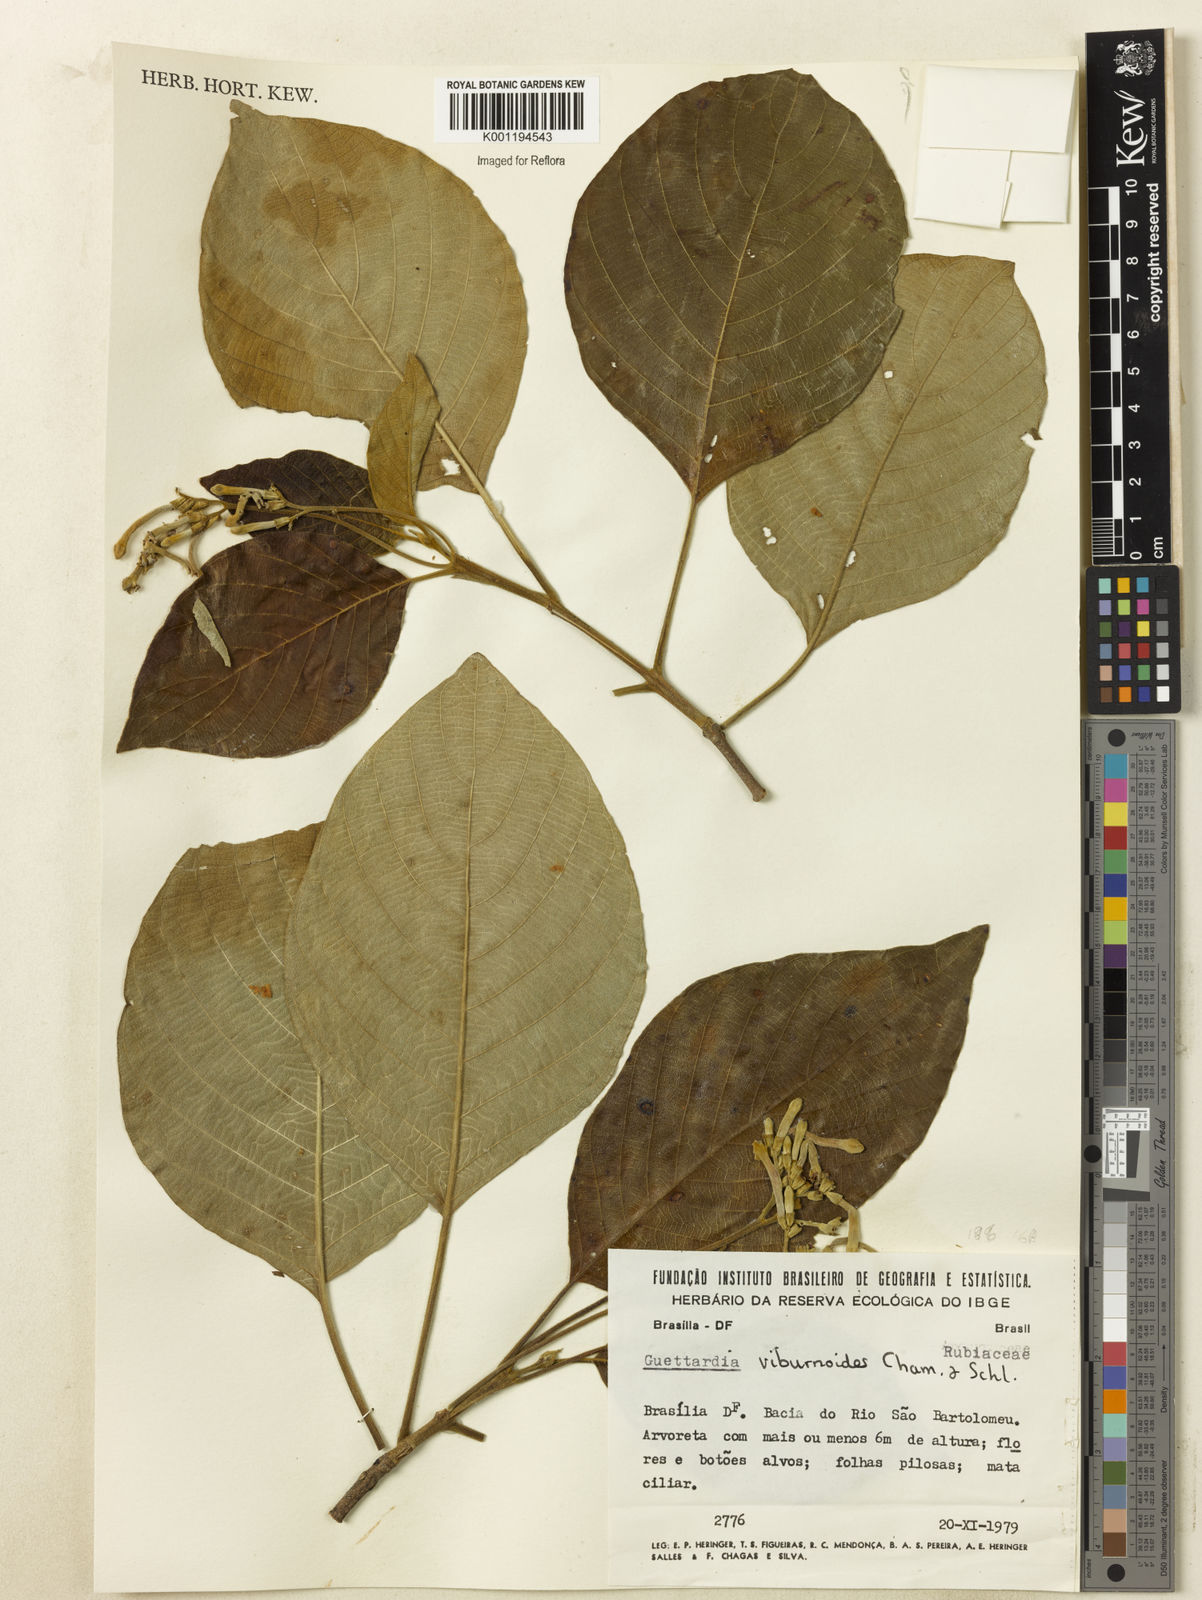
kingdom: Plantae
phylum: Tracheophyta
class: Magnoliopsida
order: Gentianales
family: Rubiaceae
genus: Guettarda
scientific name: Guettarda viburnoides
